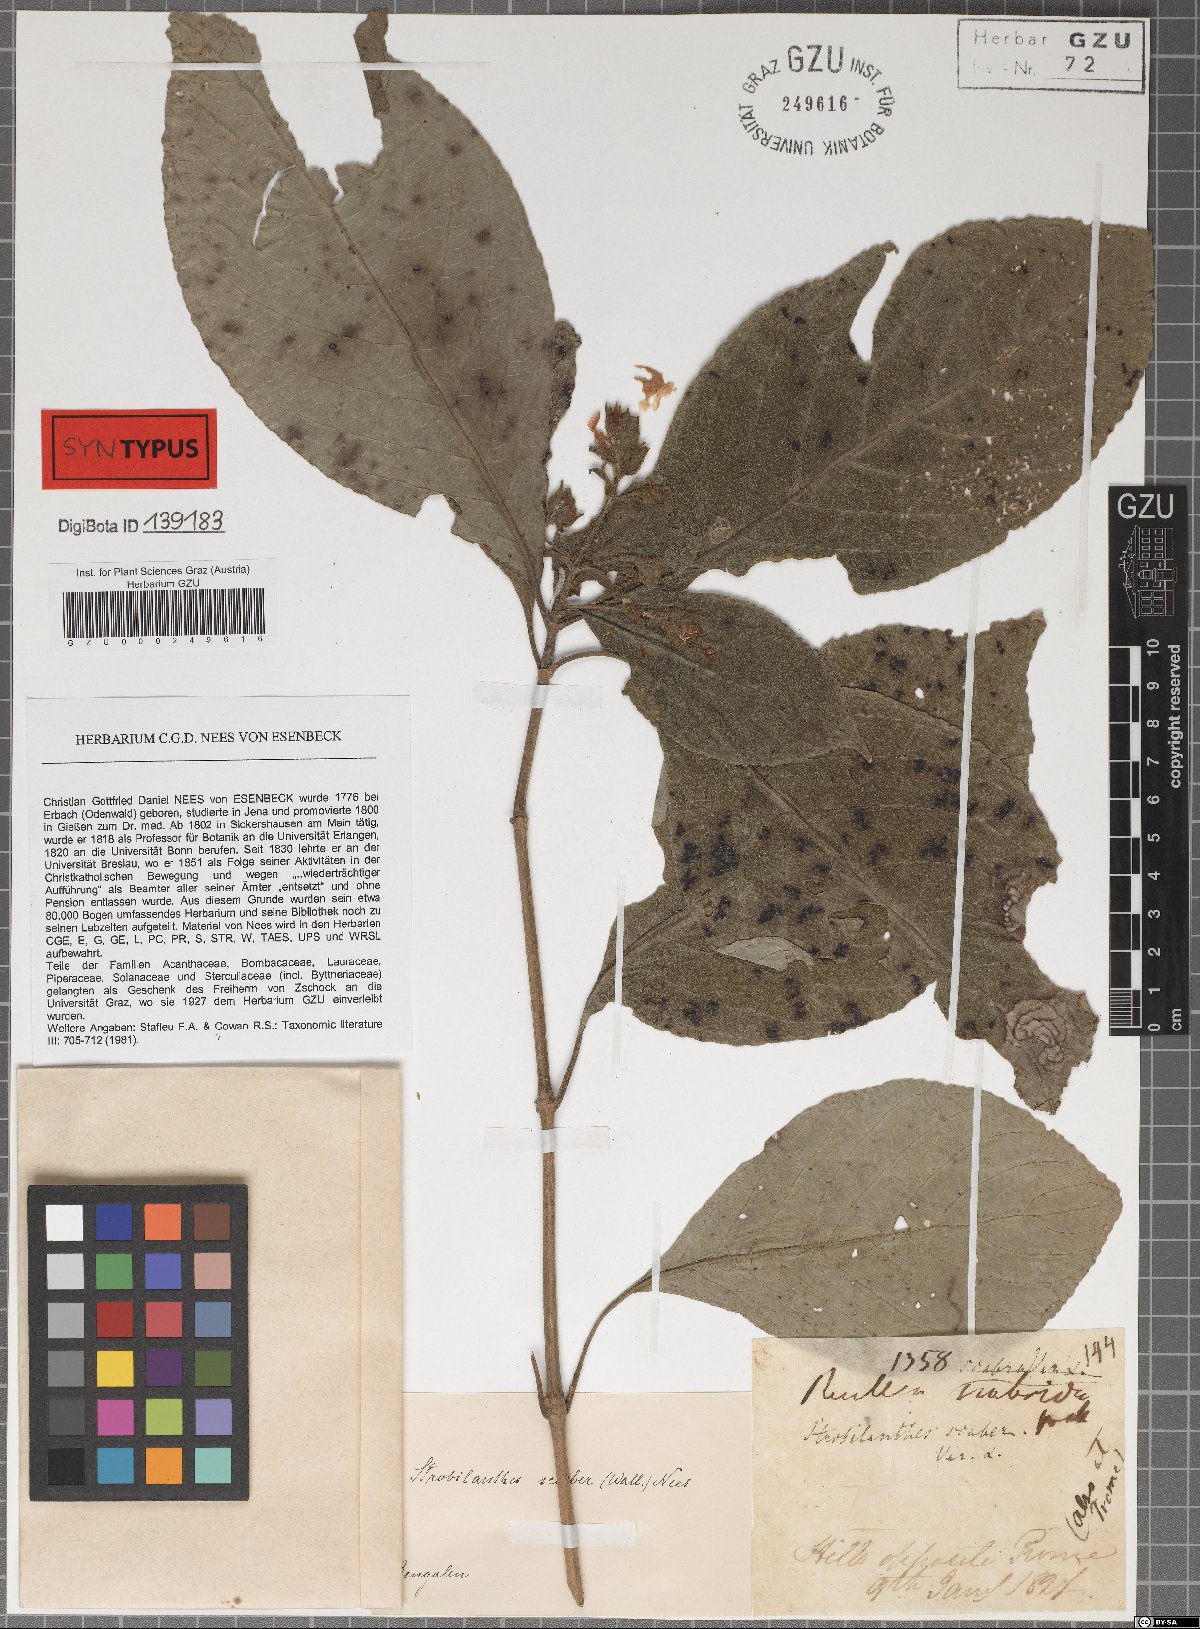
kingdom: Plantae
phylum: Tracheophyta
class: Magnoliopsida
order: Lamiales
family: Acanthaceae
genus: Strobilanthes
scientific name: Strobilanthes scaber
